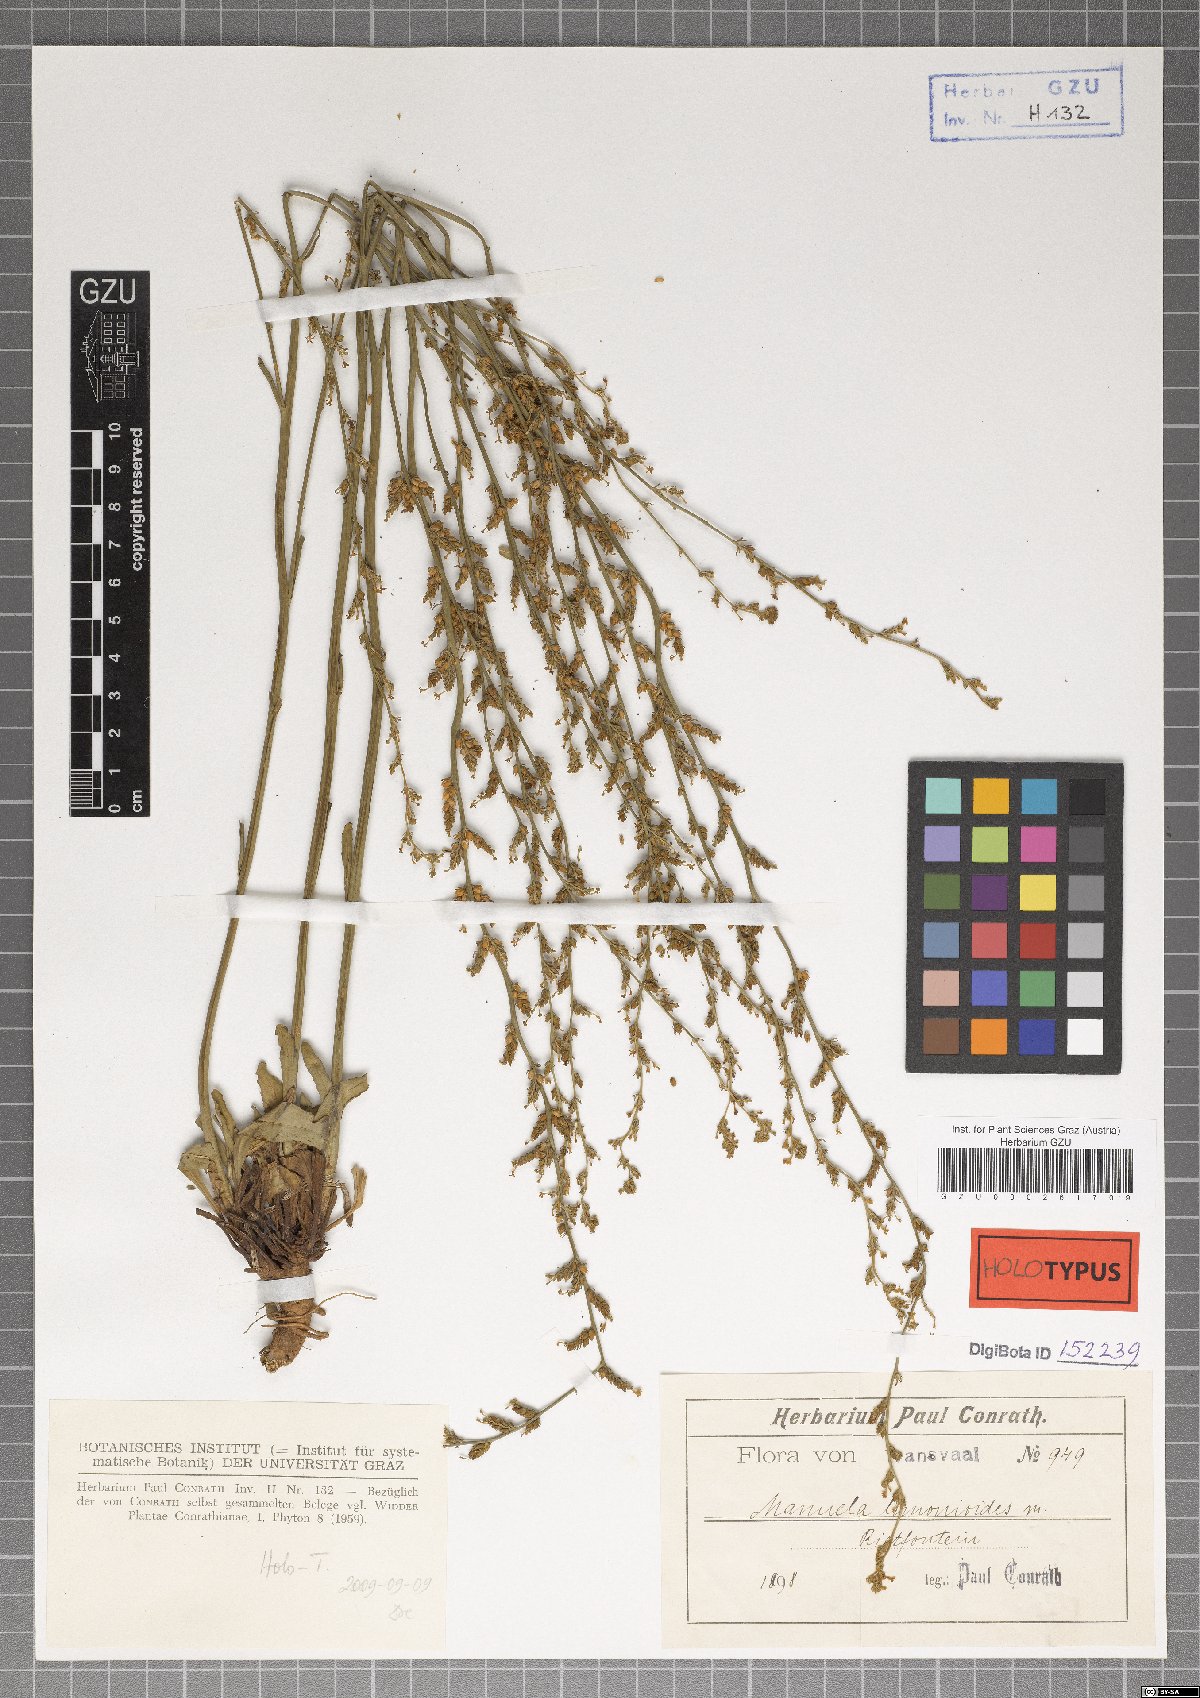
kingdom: Plantae
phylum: Tracheophyta
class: Magnoliopsida
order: Lamiales
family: Scrophulariaceae
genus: Manulea
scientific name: Manulea parviflora
